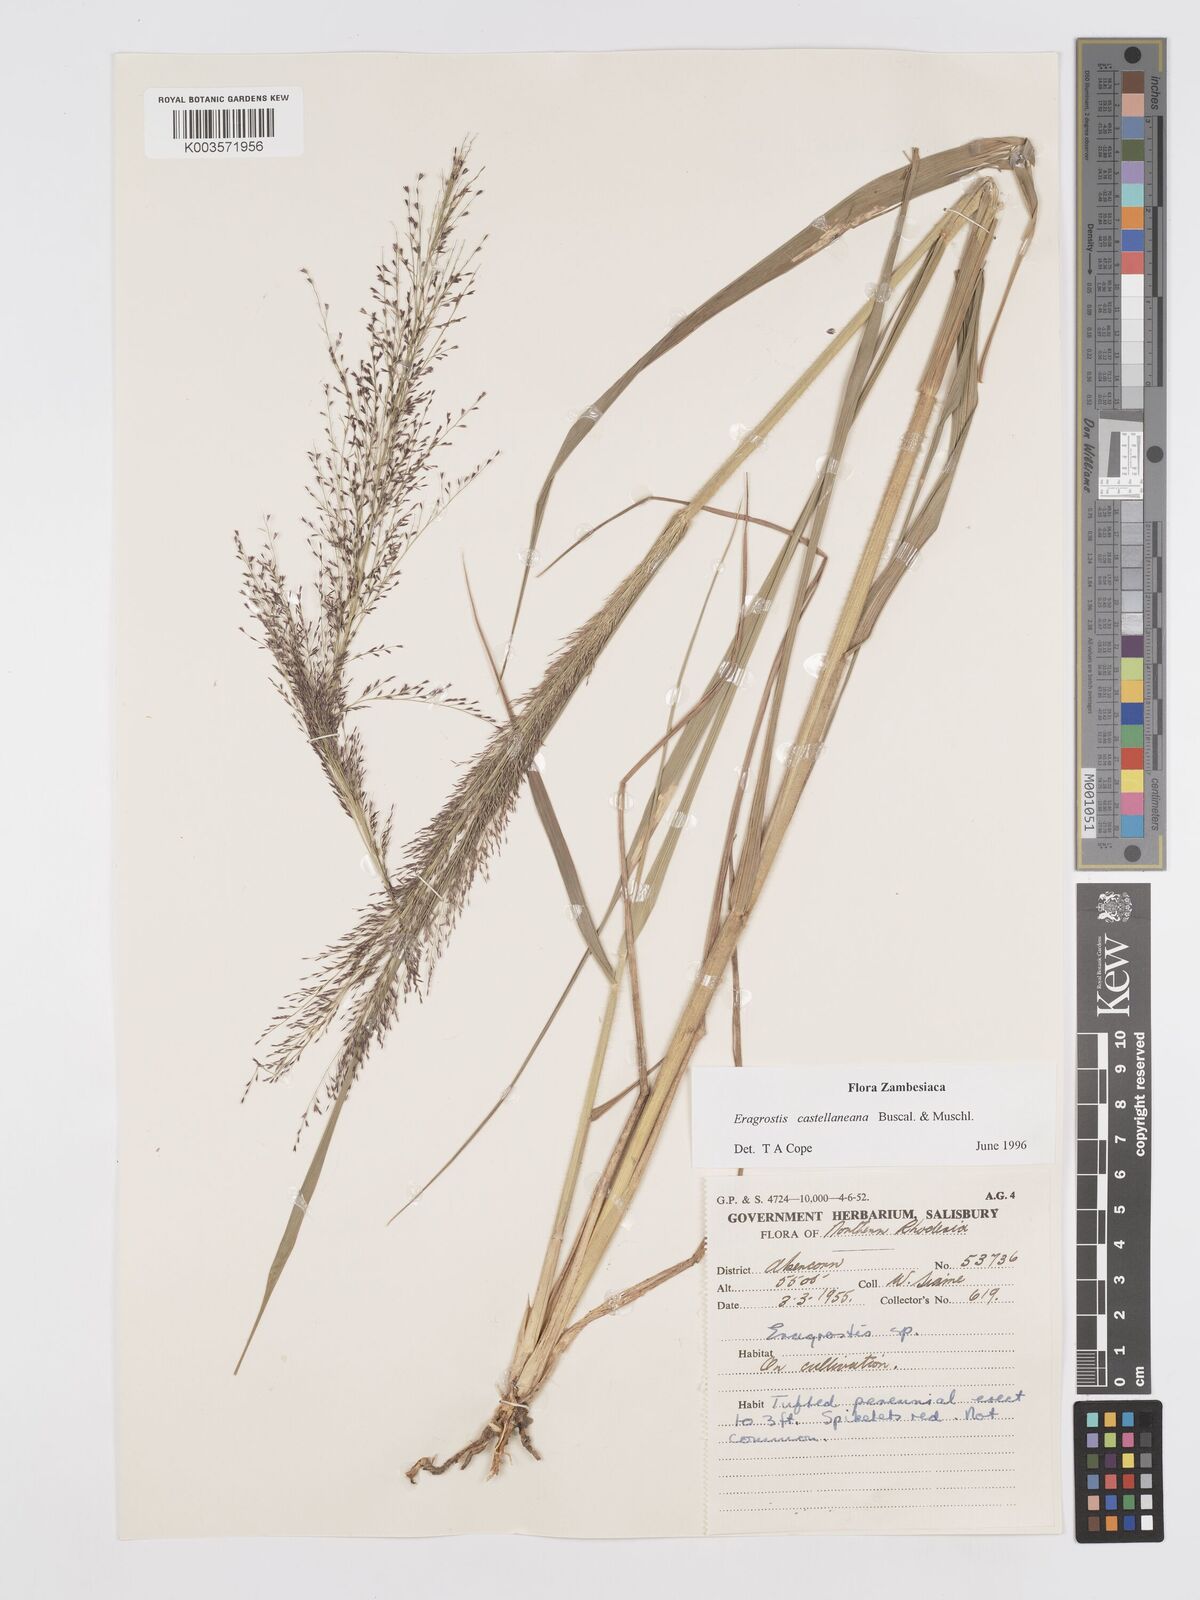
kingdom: Plantae
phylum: Tracheophyta
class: Liliopsida
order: Poales
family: Poaceae
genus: Eragrostis
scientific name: Eragrostis castellaneana
